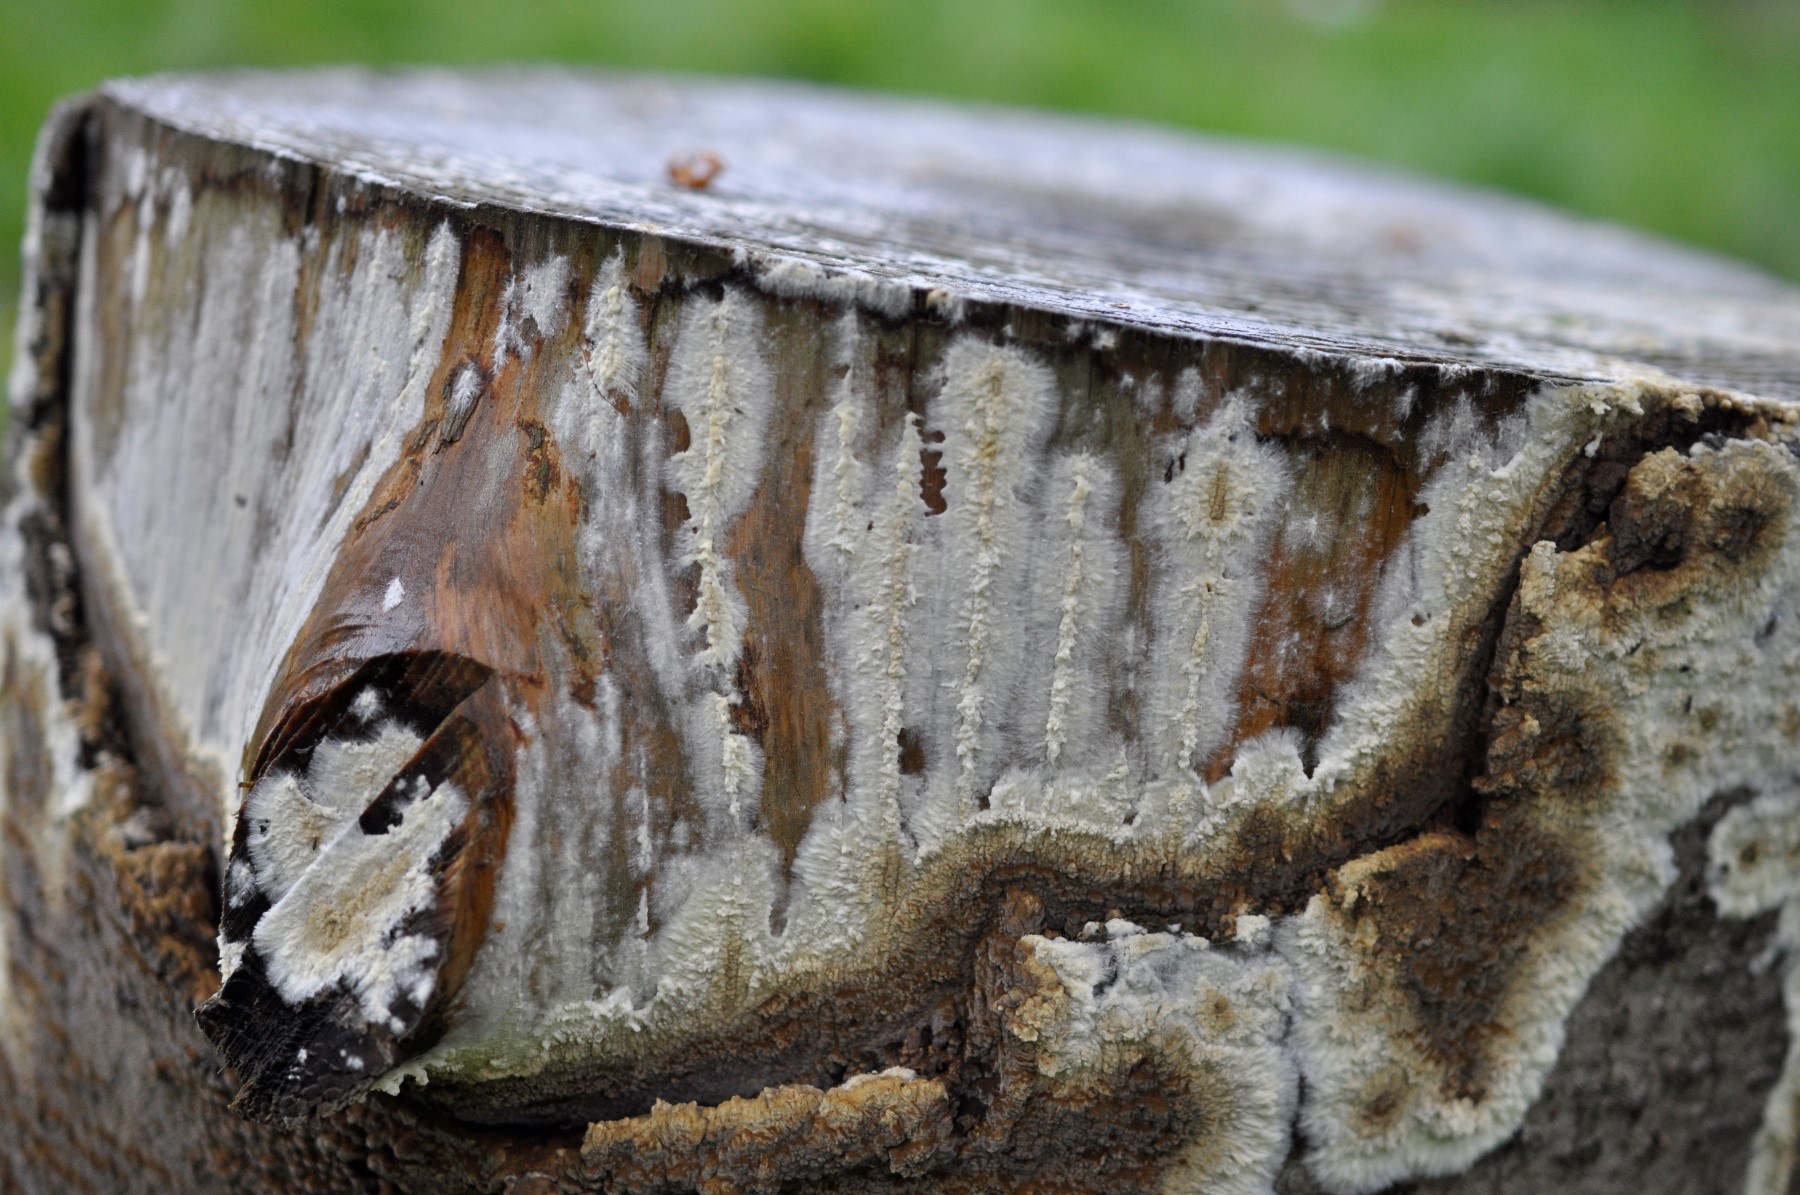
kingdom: Fungi
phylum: Basidiomycota
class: Agaricomycetes
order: Boletales
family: Coniophoraceae
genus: Coniophora
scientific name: Coniophora puteana
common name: gul tømmersvamp
